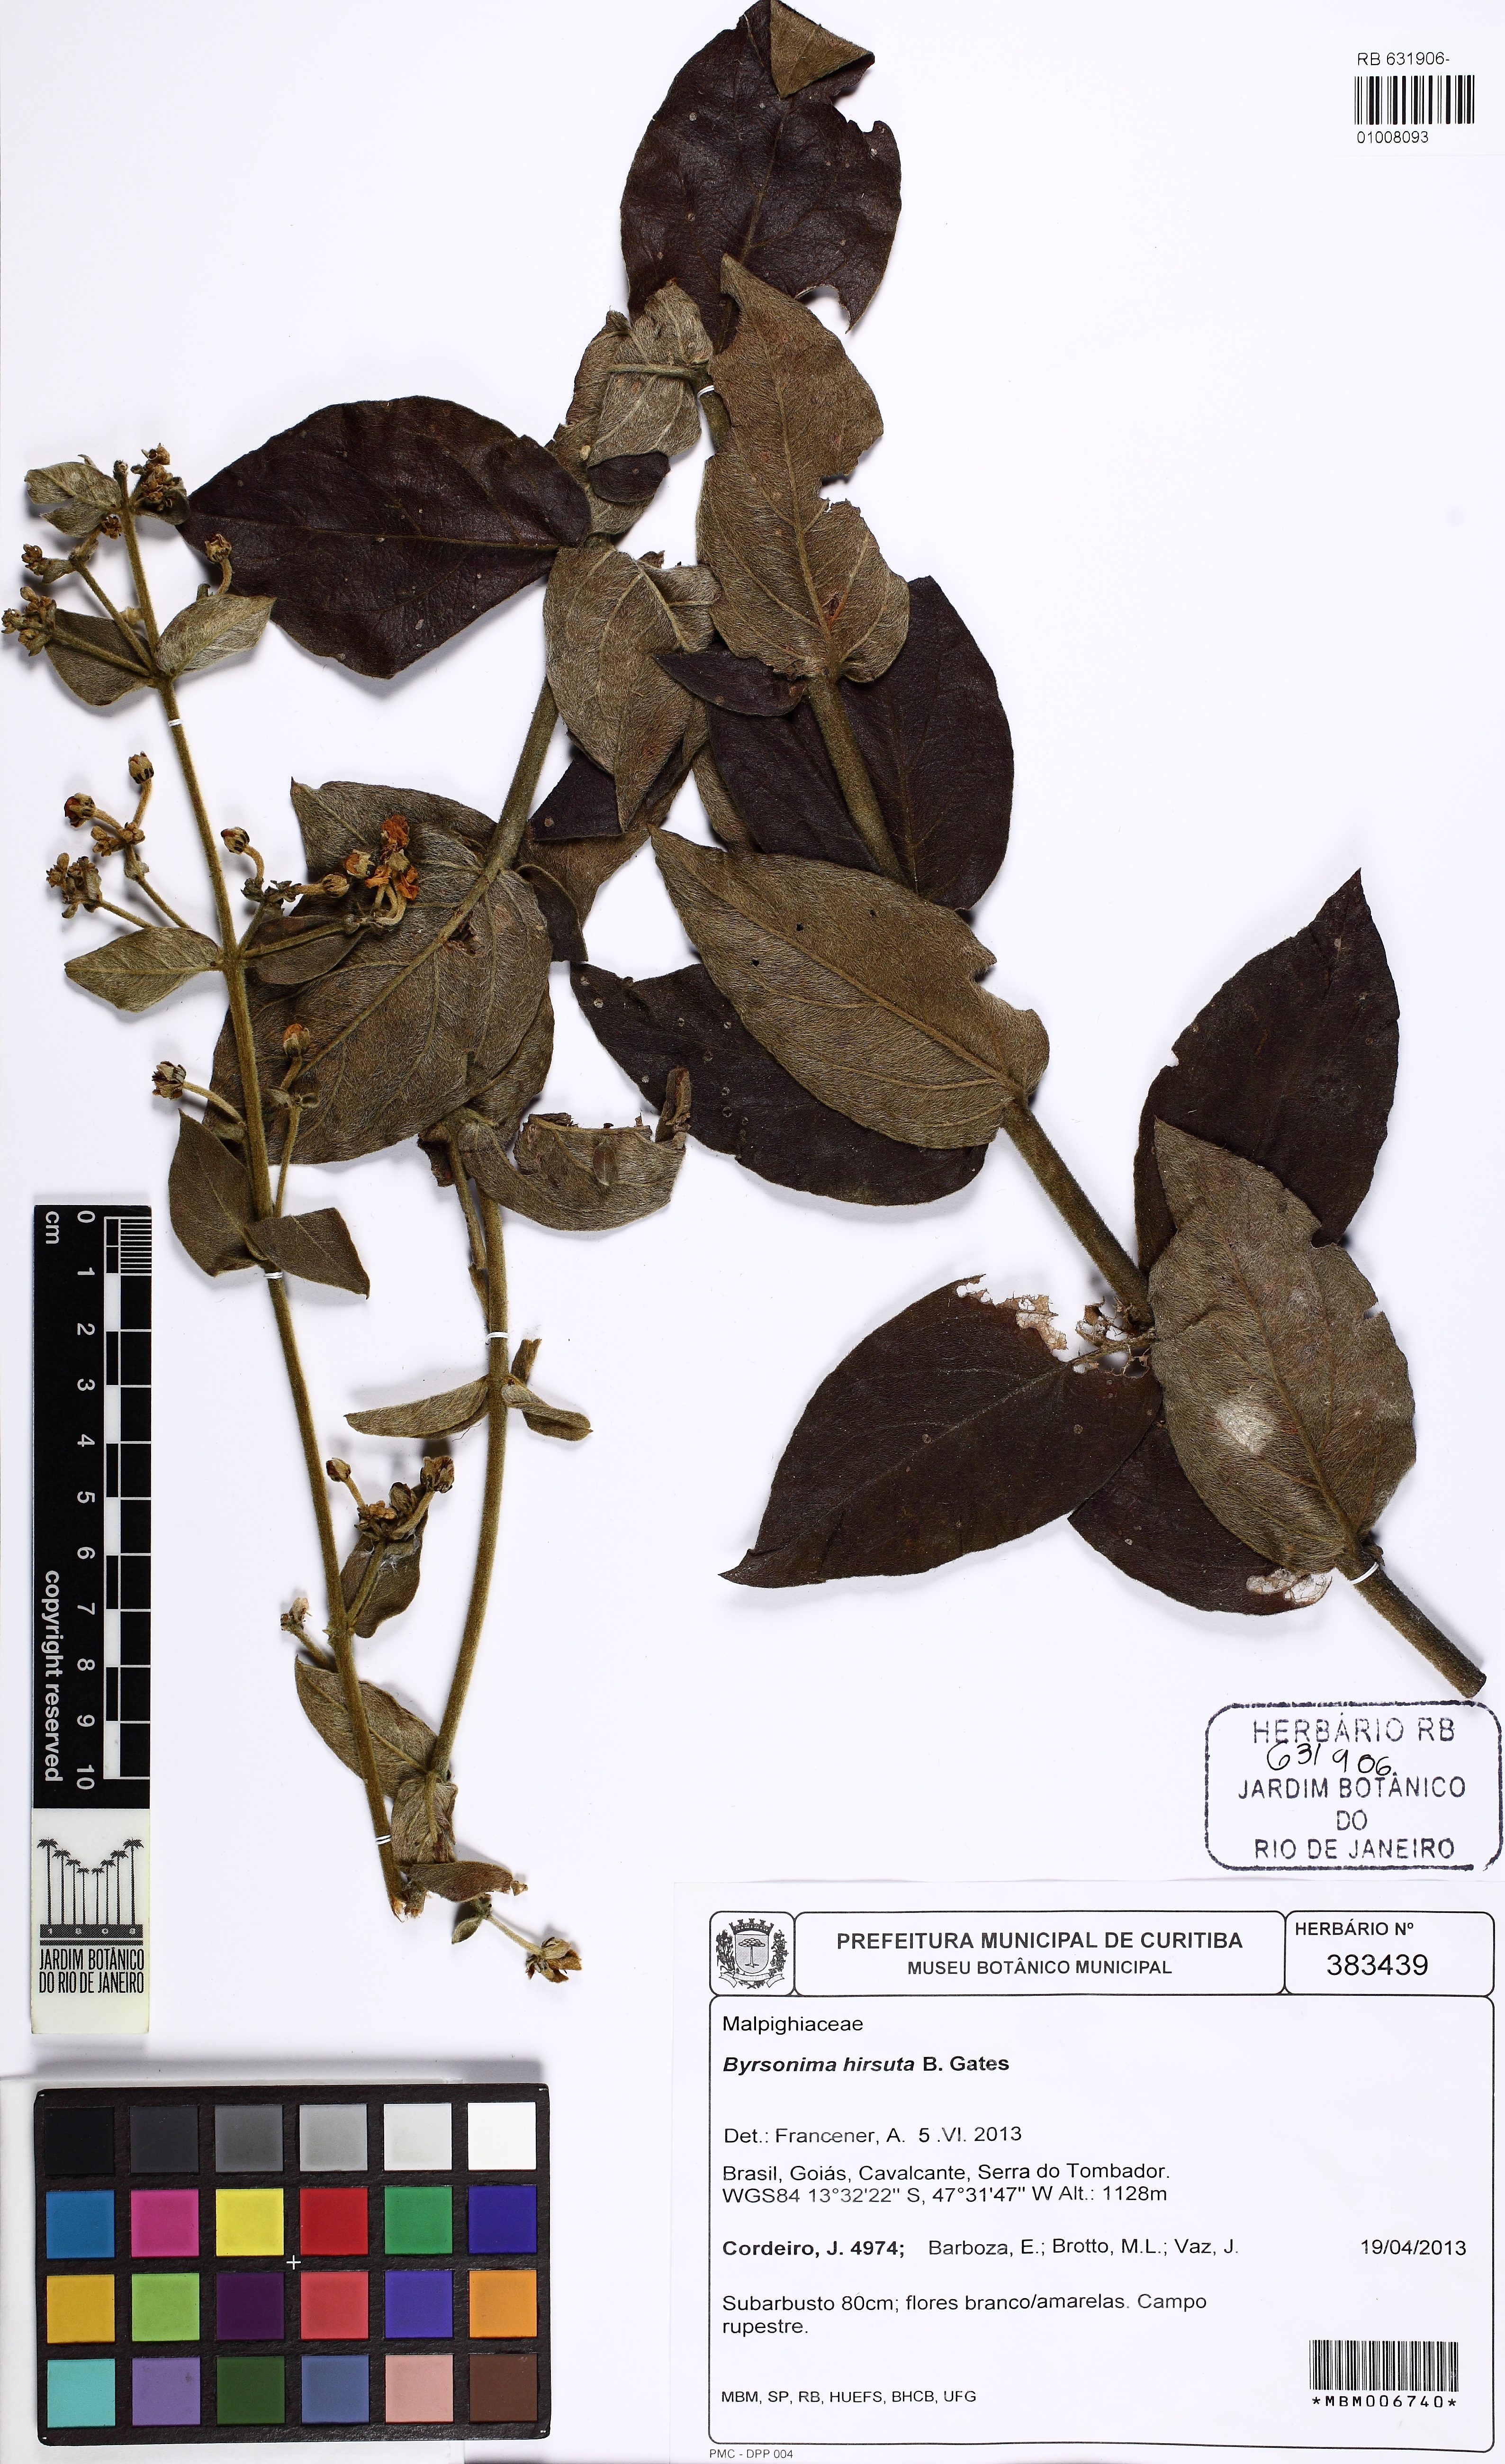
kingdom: Plantae
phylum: Tracheophyta
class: Magnoliopsida
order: Malpighiales
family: Malpighiaceae
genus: Byrsonima
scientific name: Byrsonima hirsuta
